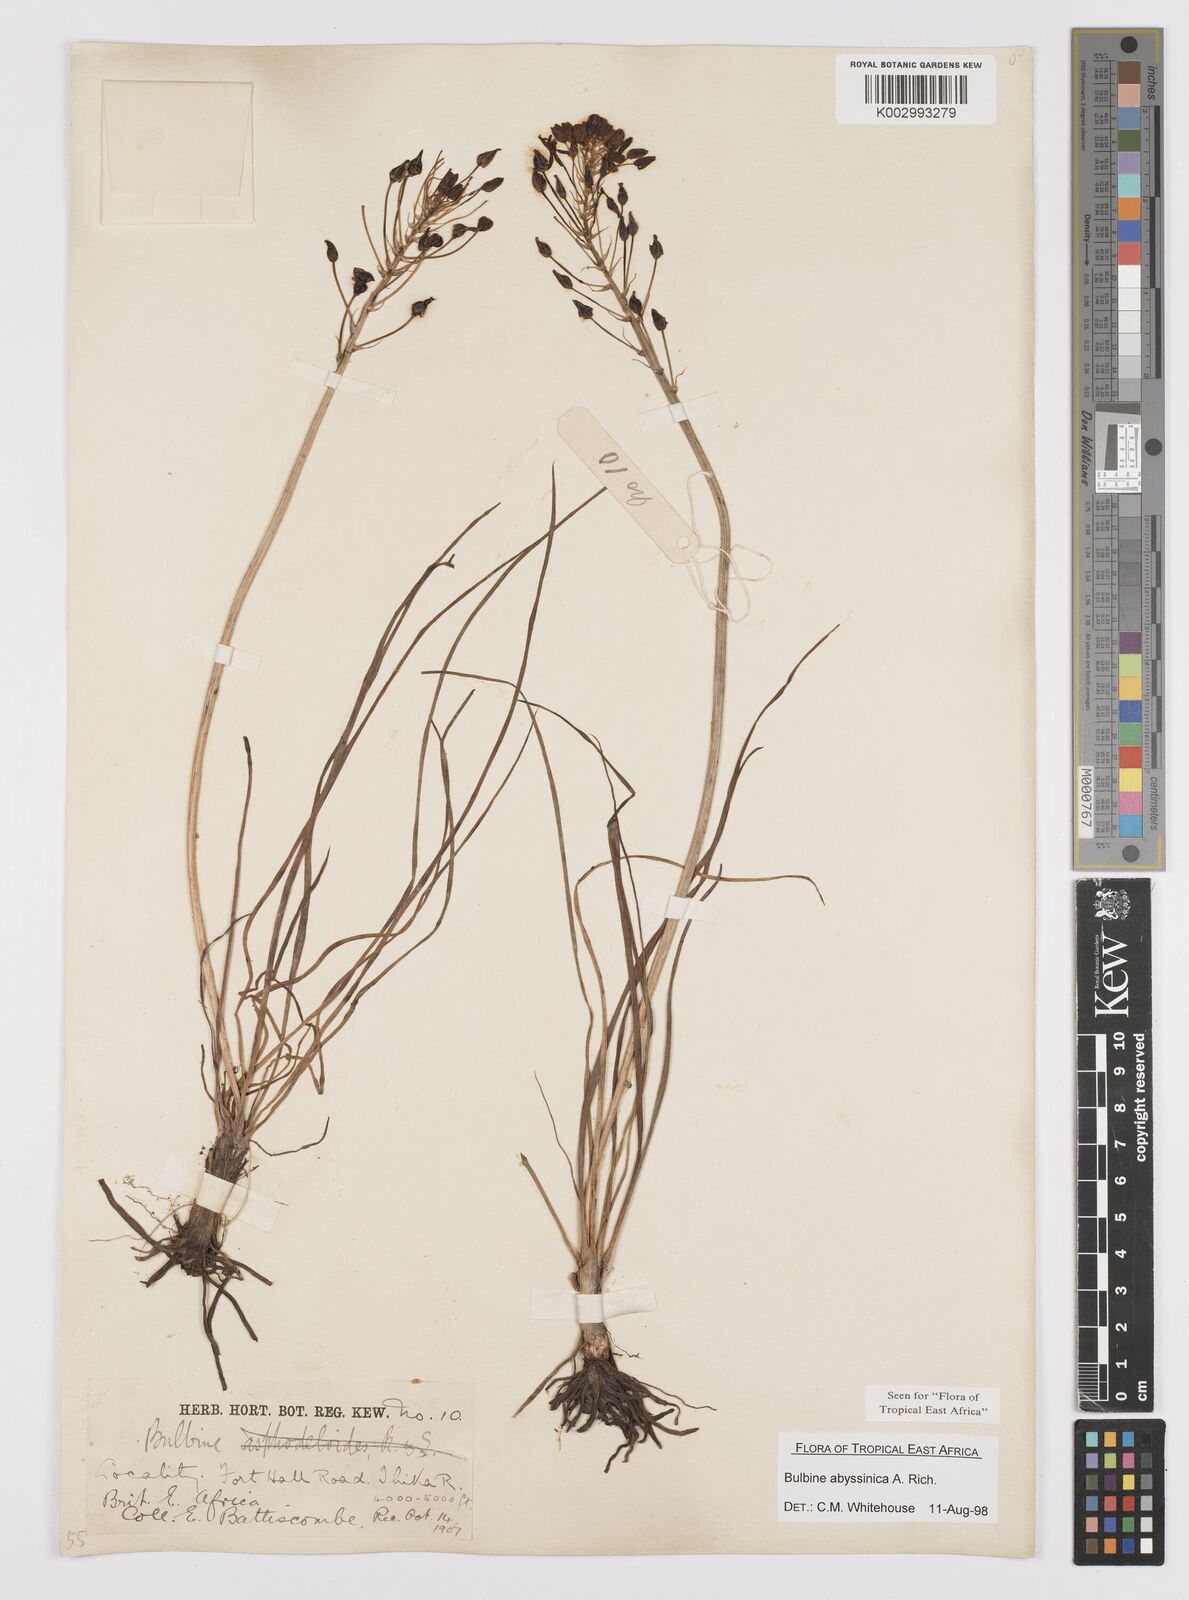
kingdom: Plantae
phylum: Tracheophyta
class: Liliopsida
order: Asparagales
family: Asphodelaceae
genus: Bulbine
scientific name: Bulbine abyssinica
